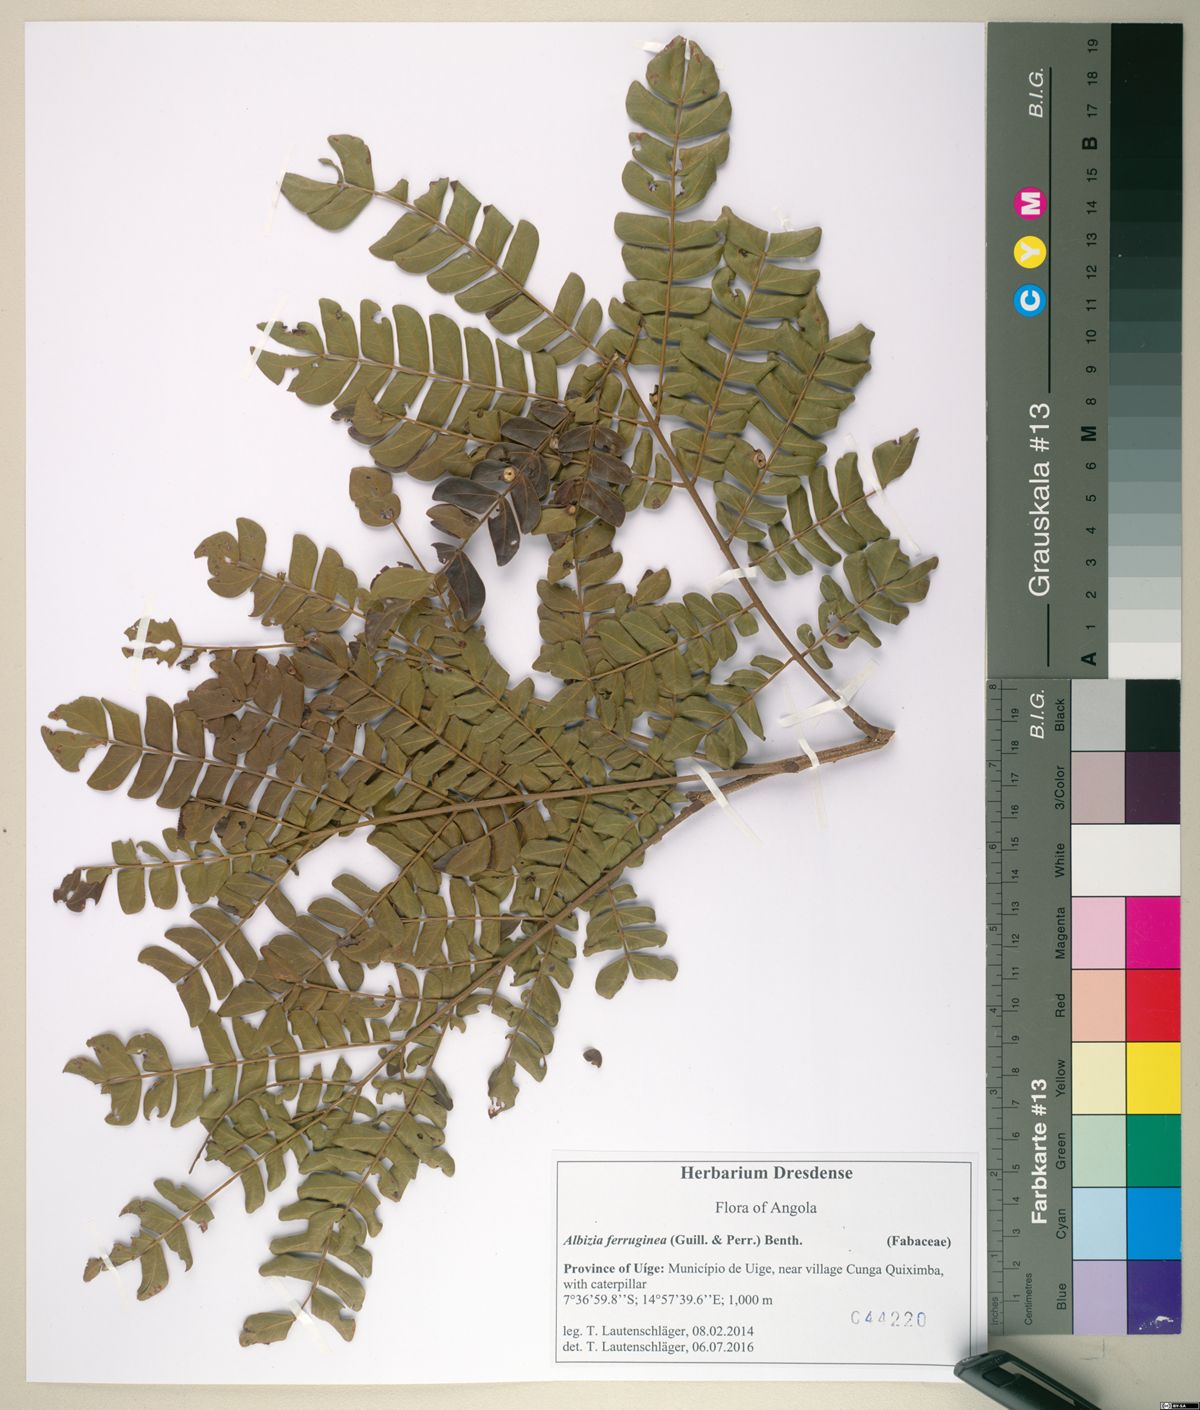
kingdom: Plantae
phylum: Tracheophyta
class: Magnoliopsida
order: Fabales
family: Fabaceae
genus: Albizia
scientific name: Albizia gummifera
